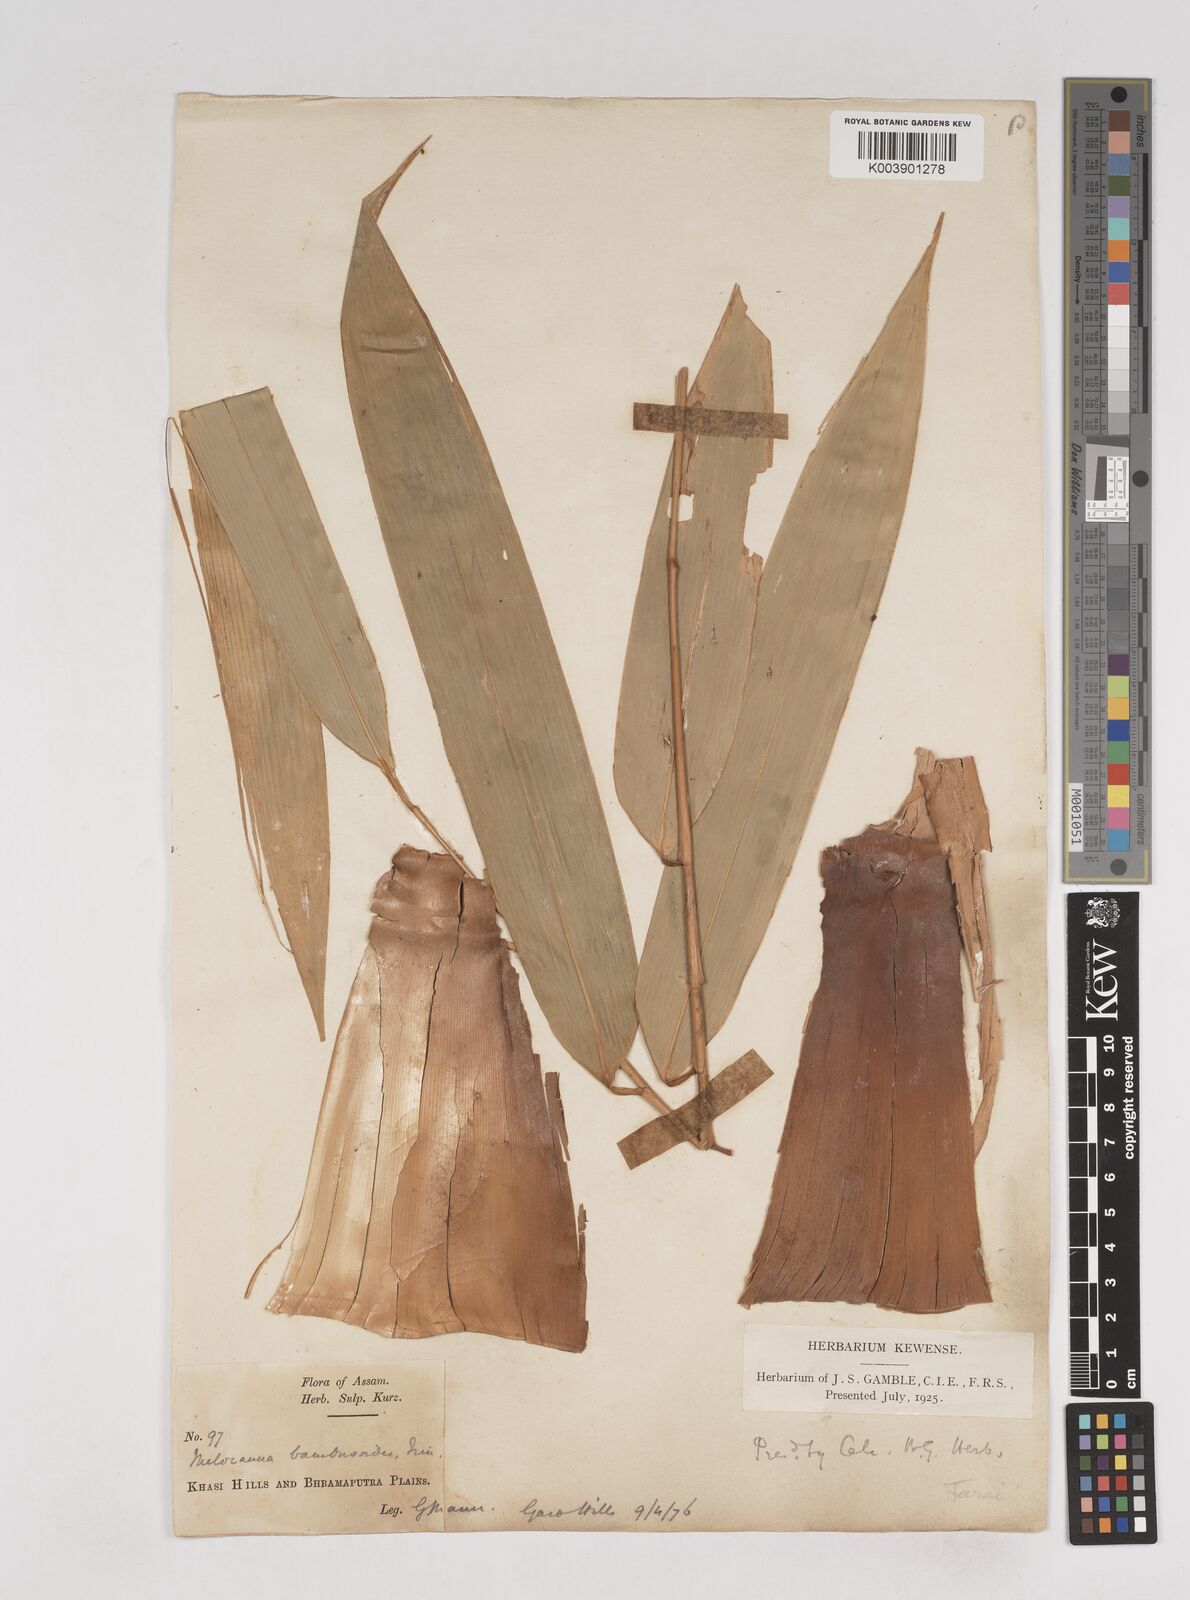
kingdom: Plantae
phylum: Tracheophyta
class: Liliopsida
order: Poales
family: Poaceae
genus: Melocanna
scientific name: Melocanna baccifera
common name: Berry bamboo
